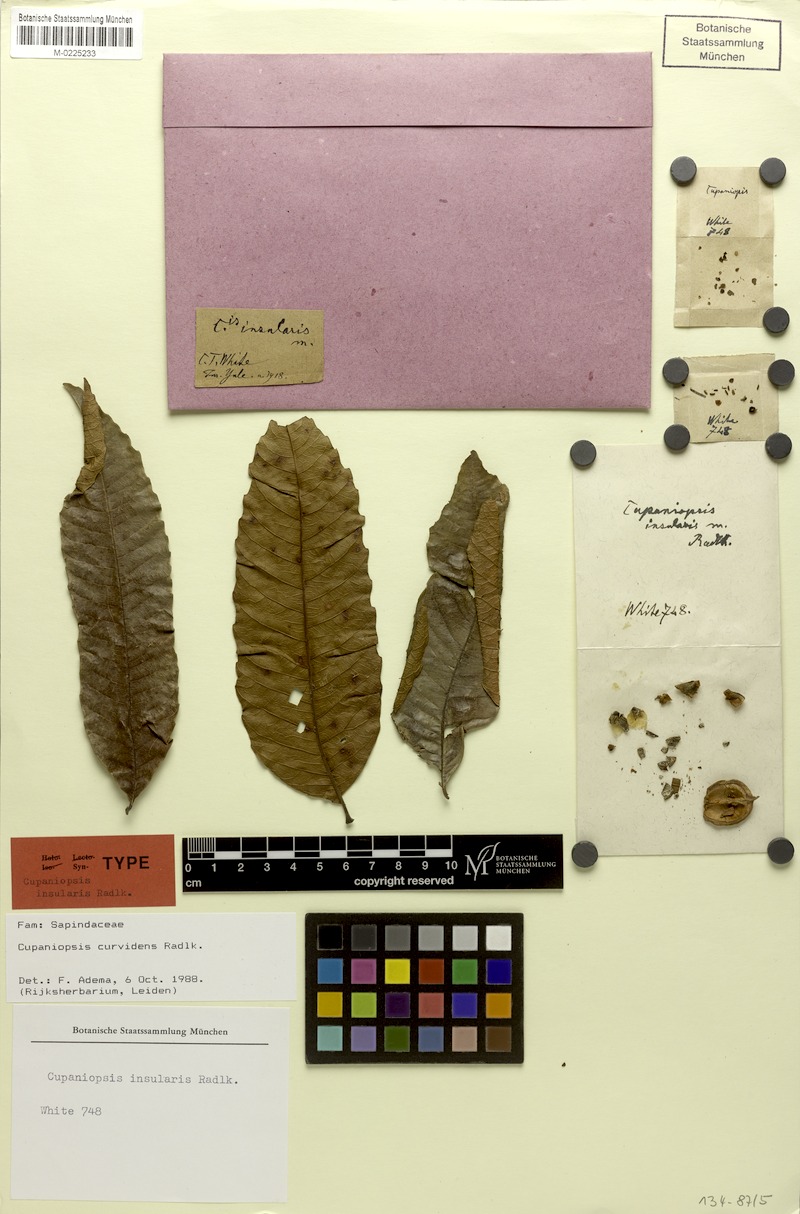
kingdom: Plantae
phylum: Tracheophyta
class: Magnoliopsida
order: Sapindales
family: Sapindaceae
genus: Cupaniopsis
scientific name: Cupaniopsis curvidens
